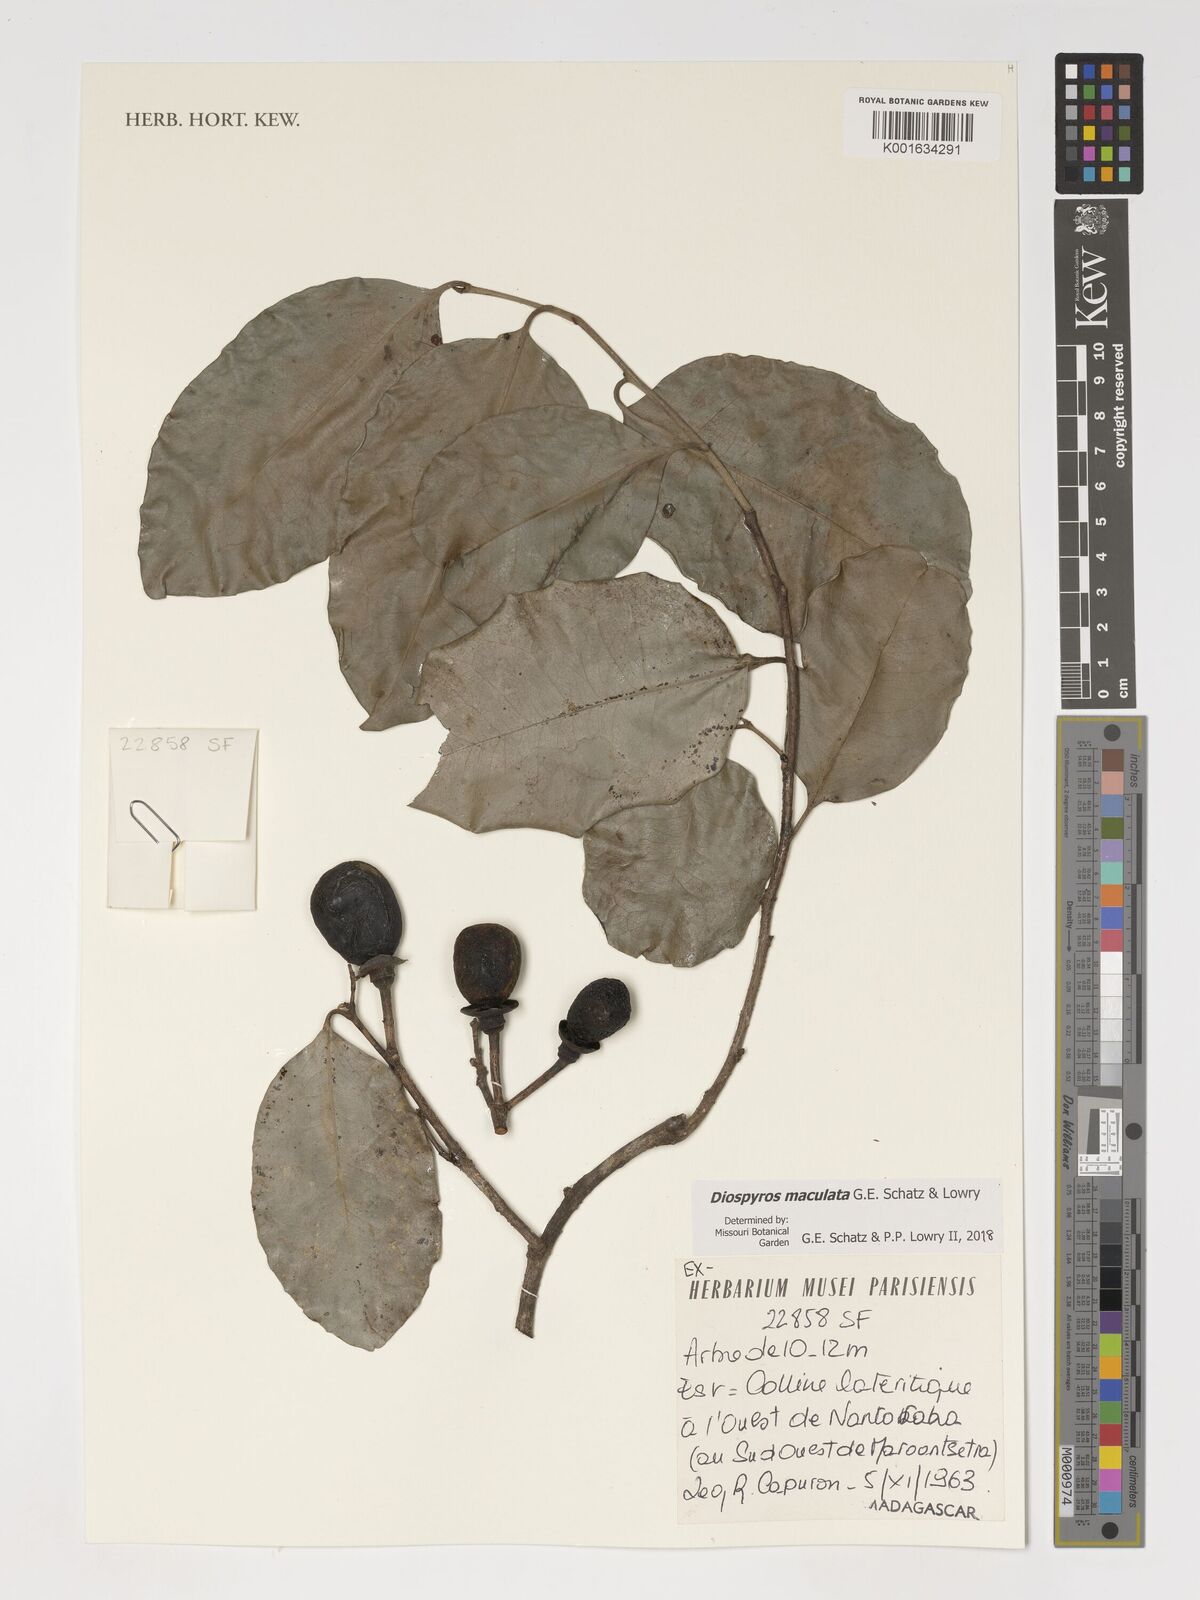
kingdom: Plantae
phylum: Tracheophyta
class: Magnoliopsida
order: Ericales
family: Ebenaceae
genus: Diospyros
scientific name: Diospyros maculata
